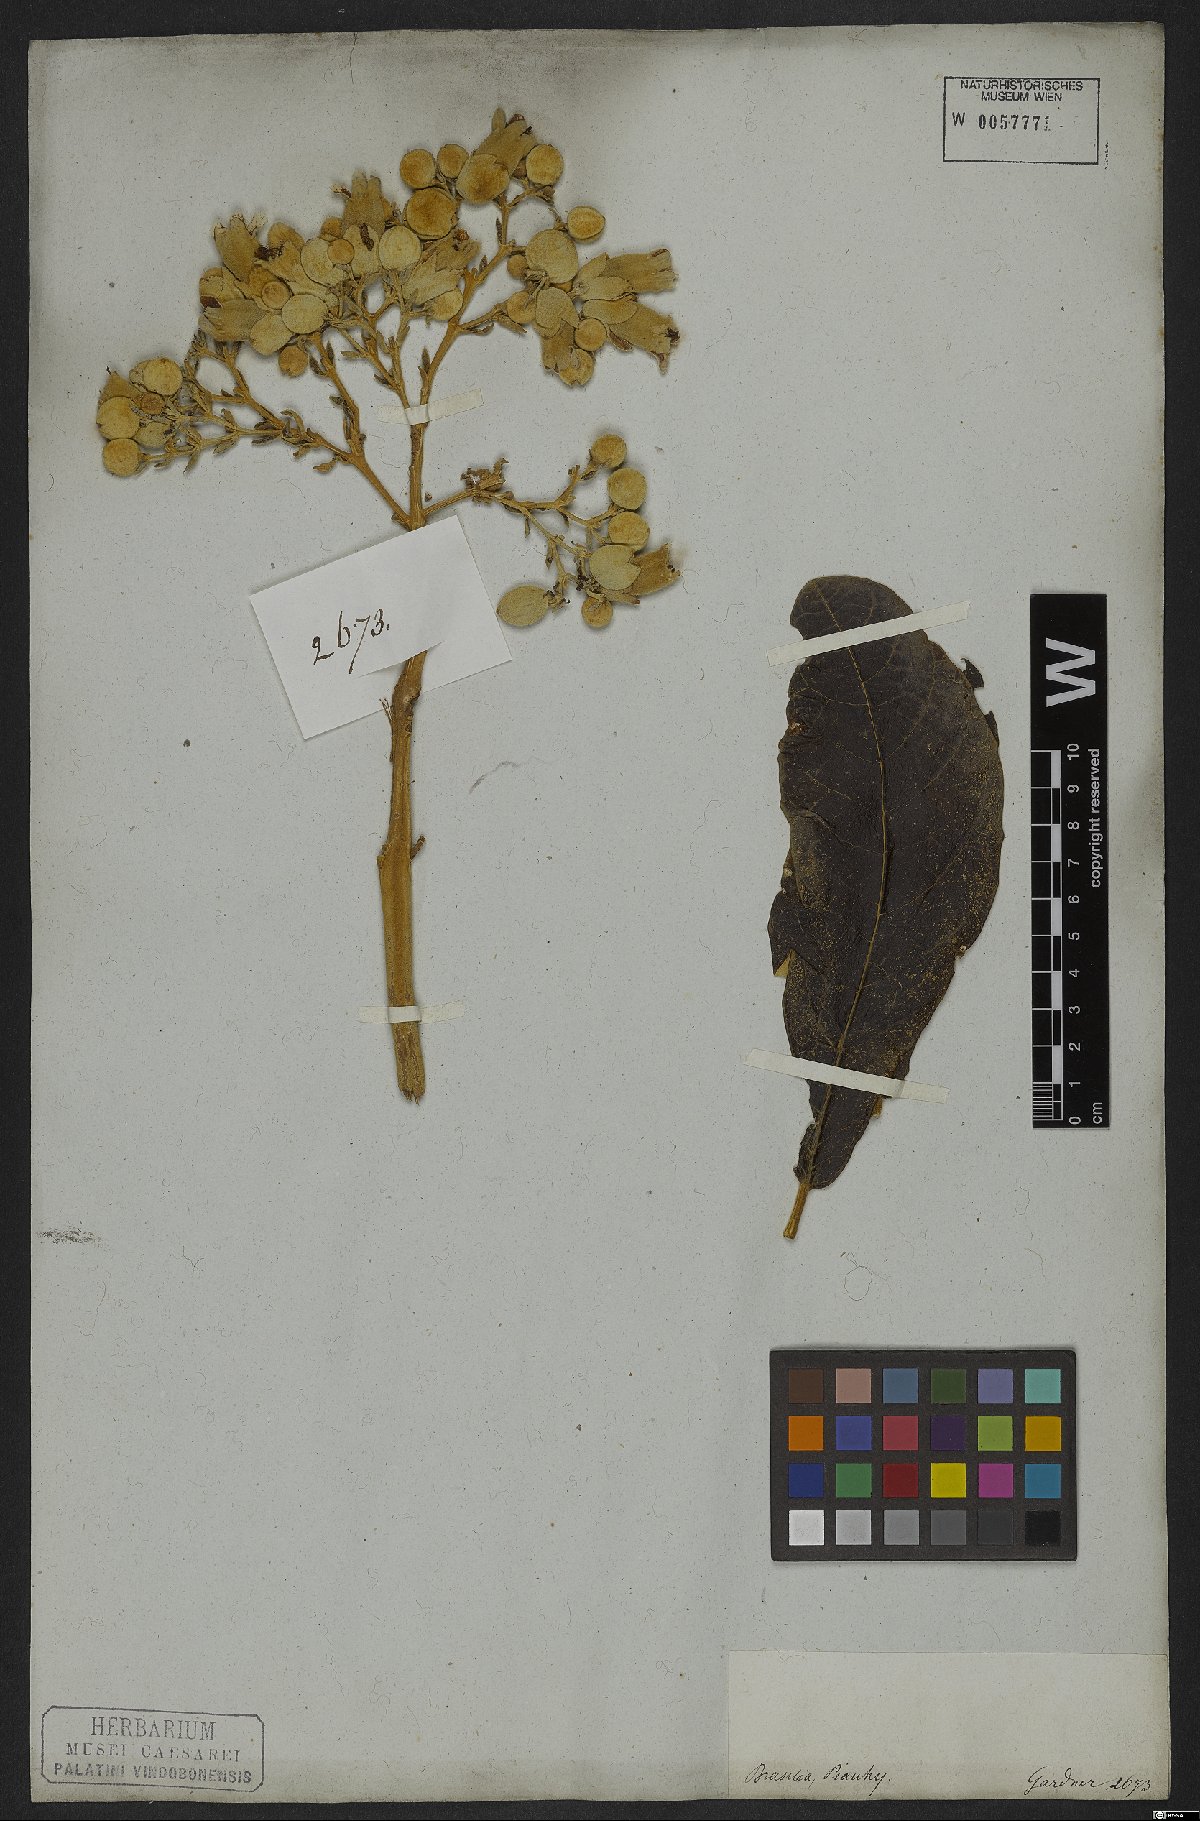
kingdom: Plantae
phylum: Tracheophyta
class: Magnoliopsida
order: Lamiales
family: Bignoniaceae
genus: Zeyheria
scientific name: Zeyheria montana
